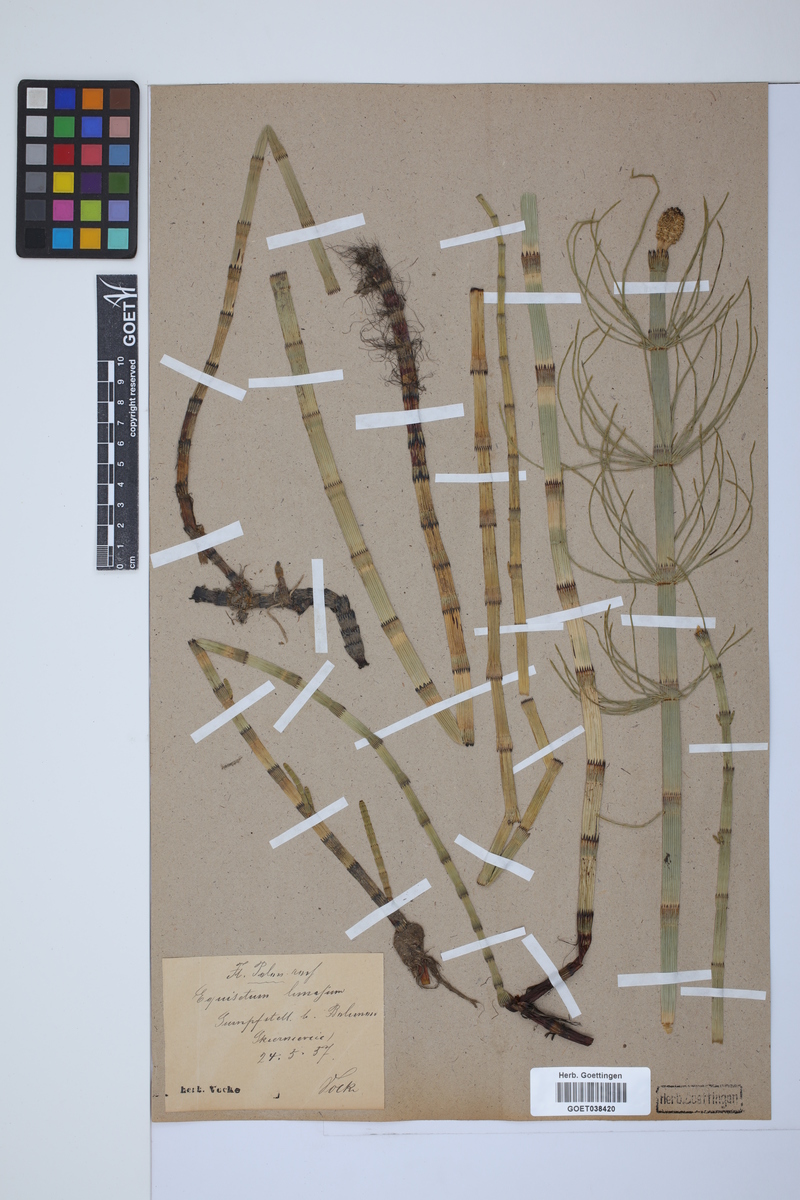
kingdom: Plantae
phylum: Tracheophyta
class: Polypodiopsida
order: Equisetales
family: Equisetaceae
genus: Equisetum
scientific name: Equisetum fluviatile
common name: Water horsetail
